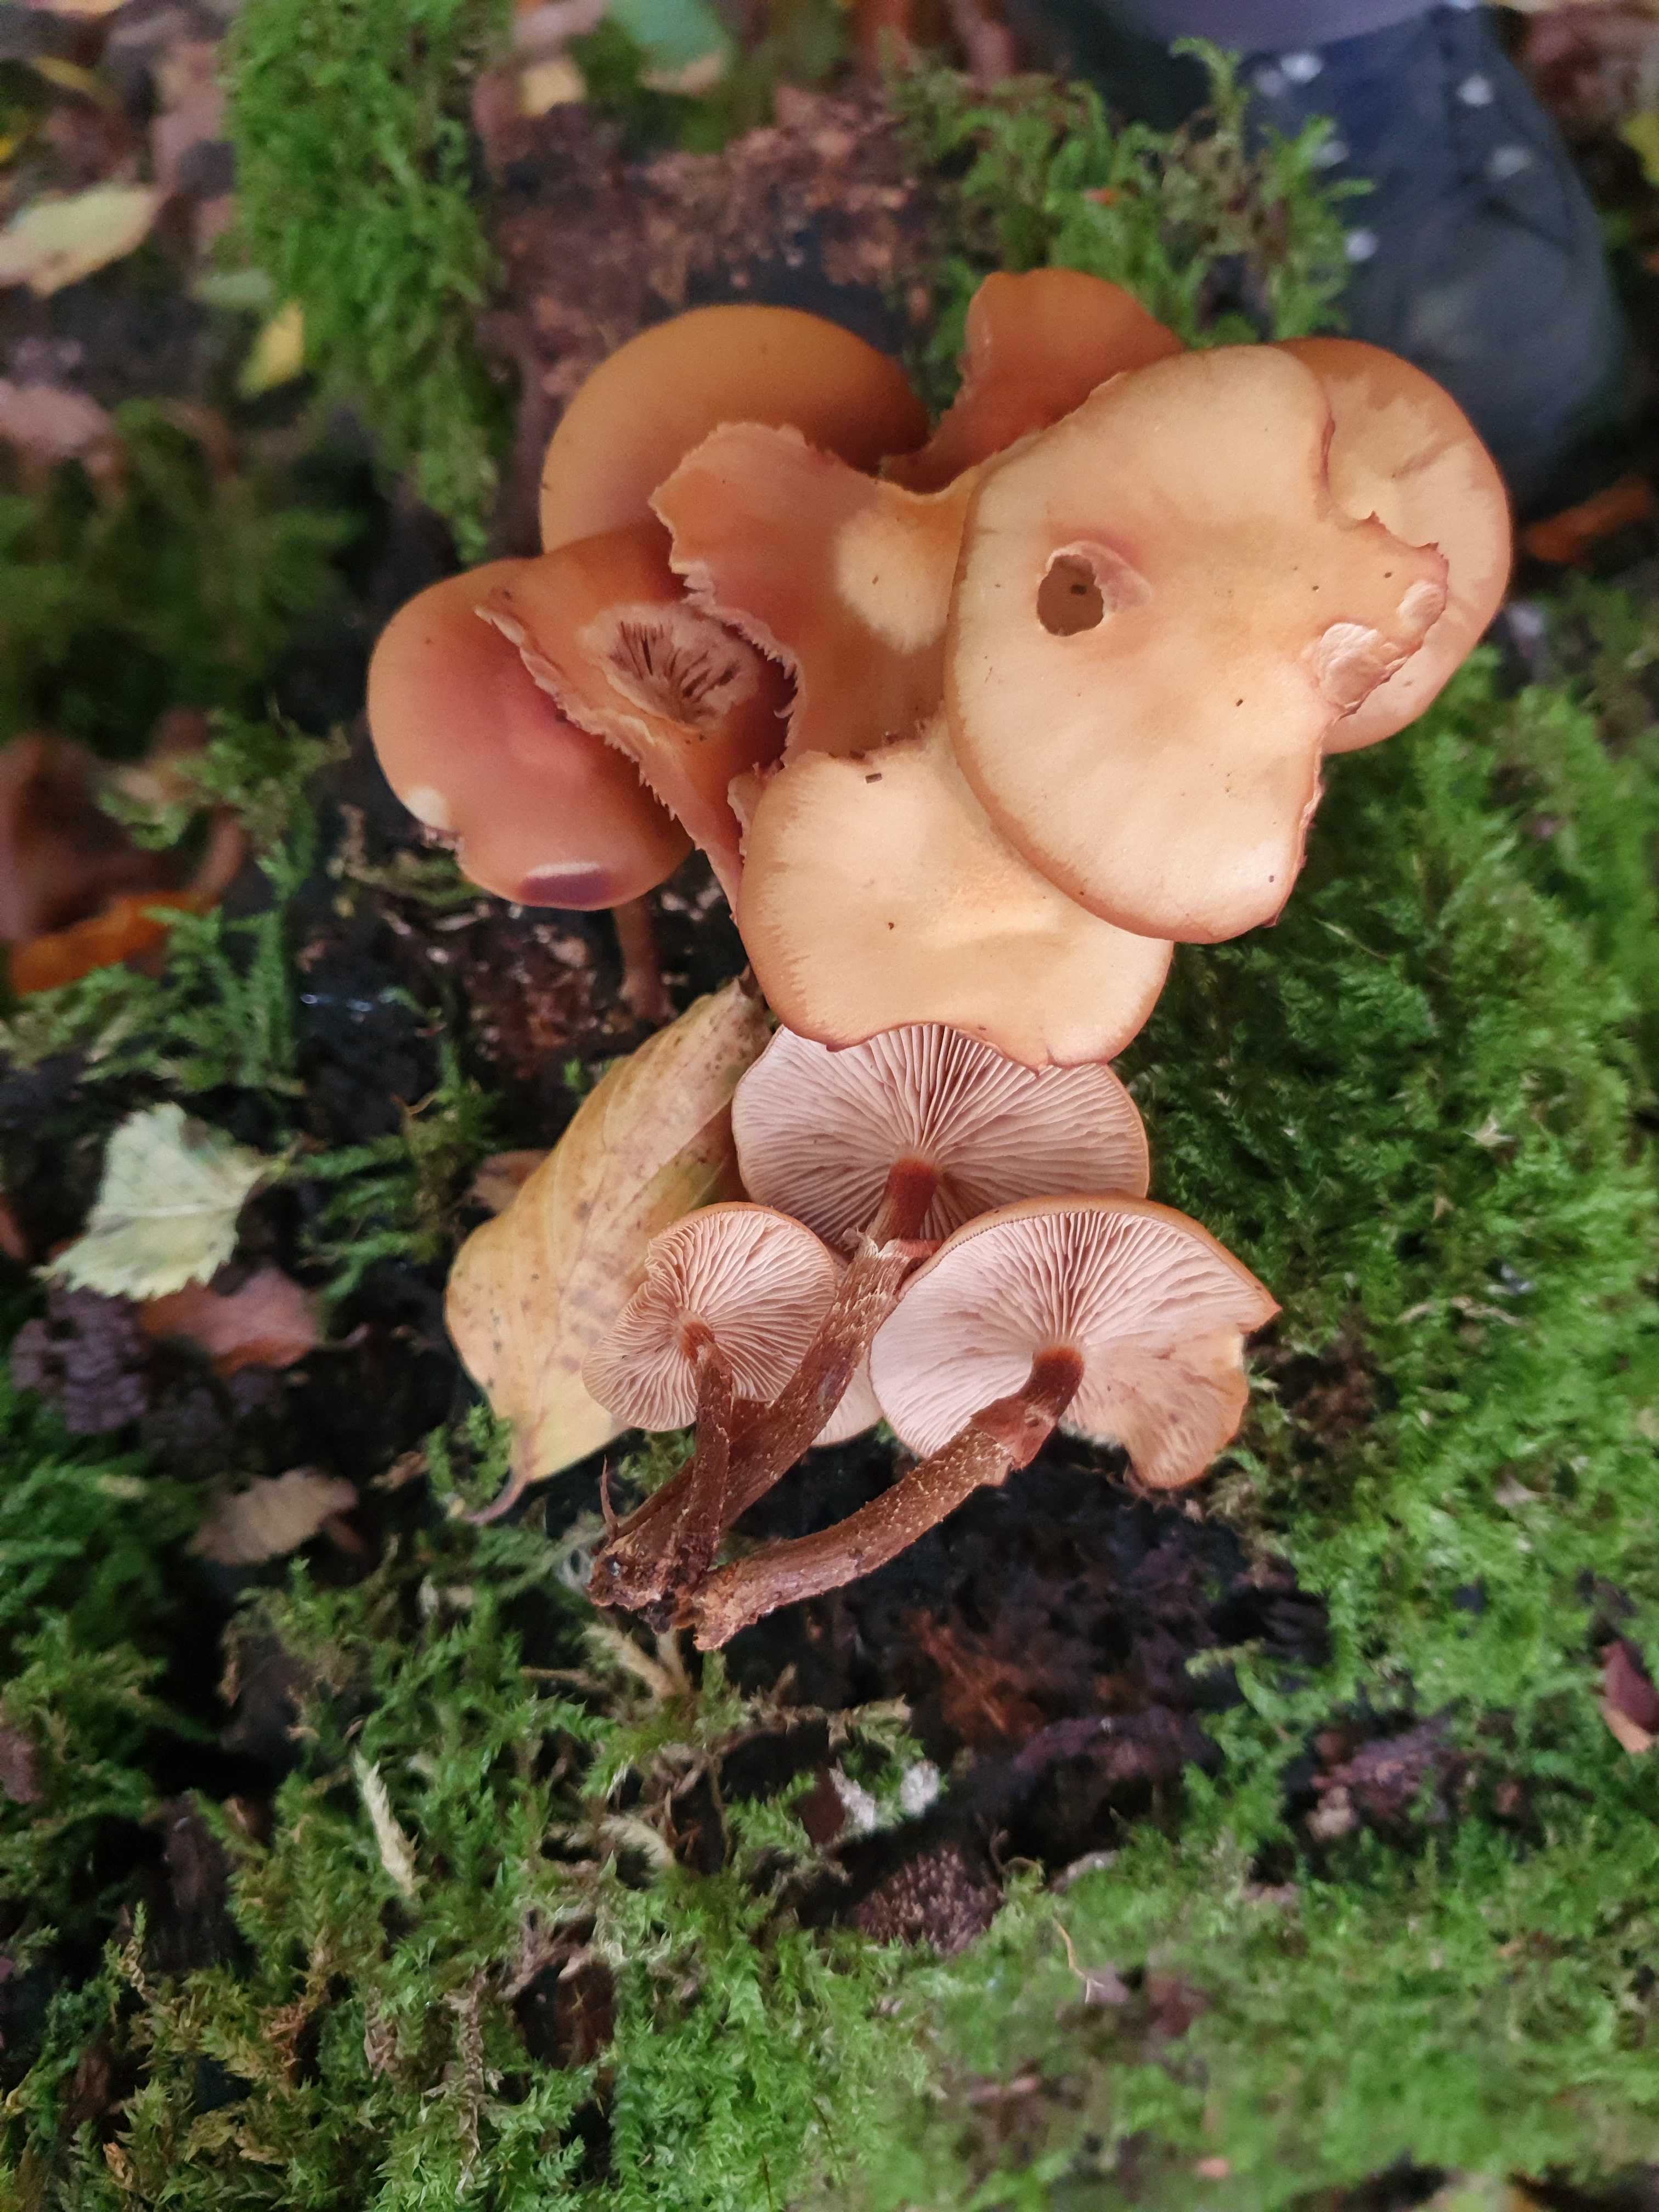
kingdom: Fungi
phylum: Basidiomycota
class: Agaricomycetes
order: Agaricales
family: Strophariaceae
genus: Kuehneromyces
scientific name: Kuehneromyces mutabilis
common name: foranderlig skælhat
